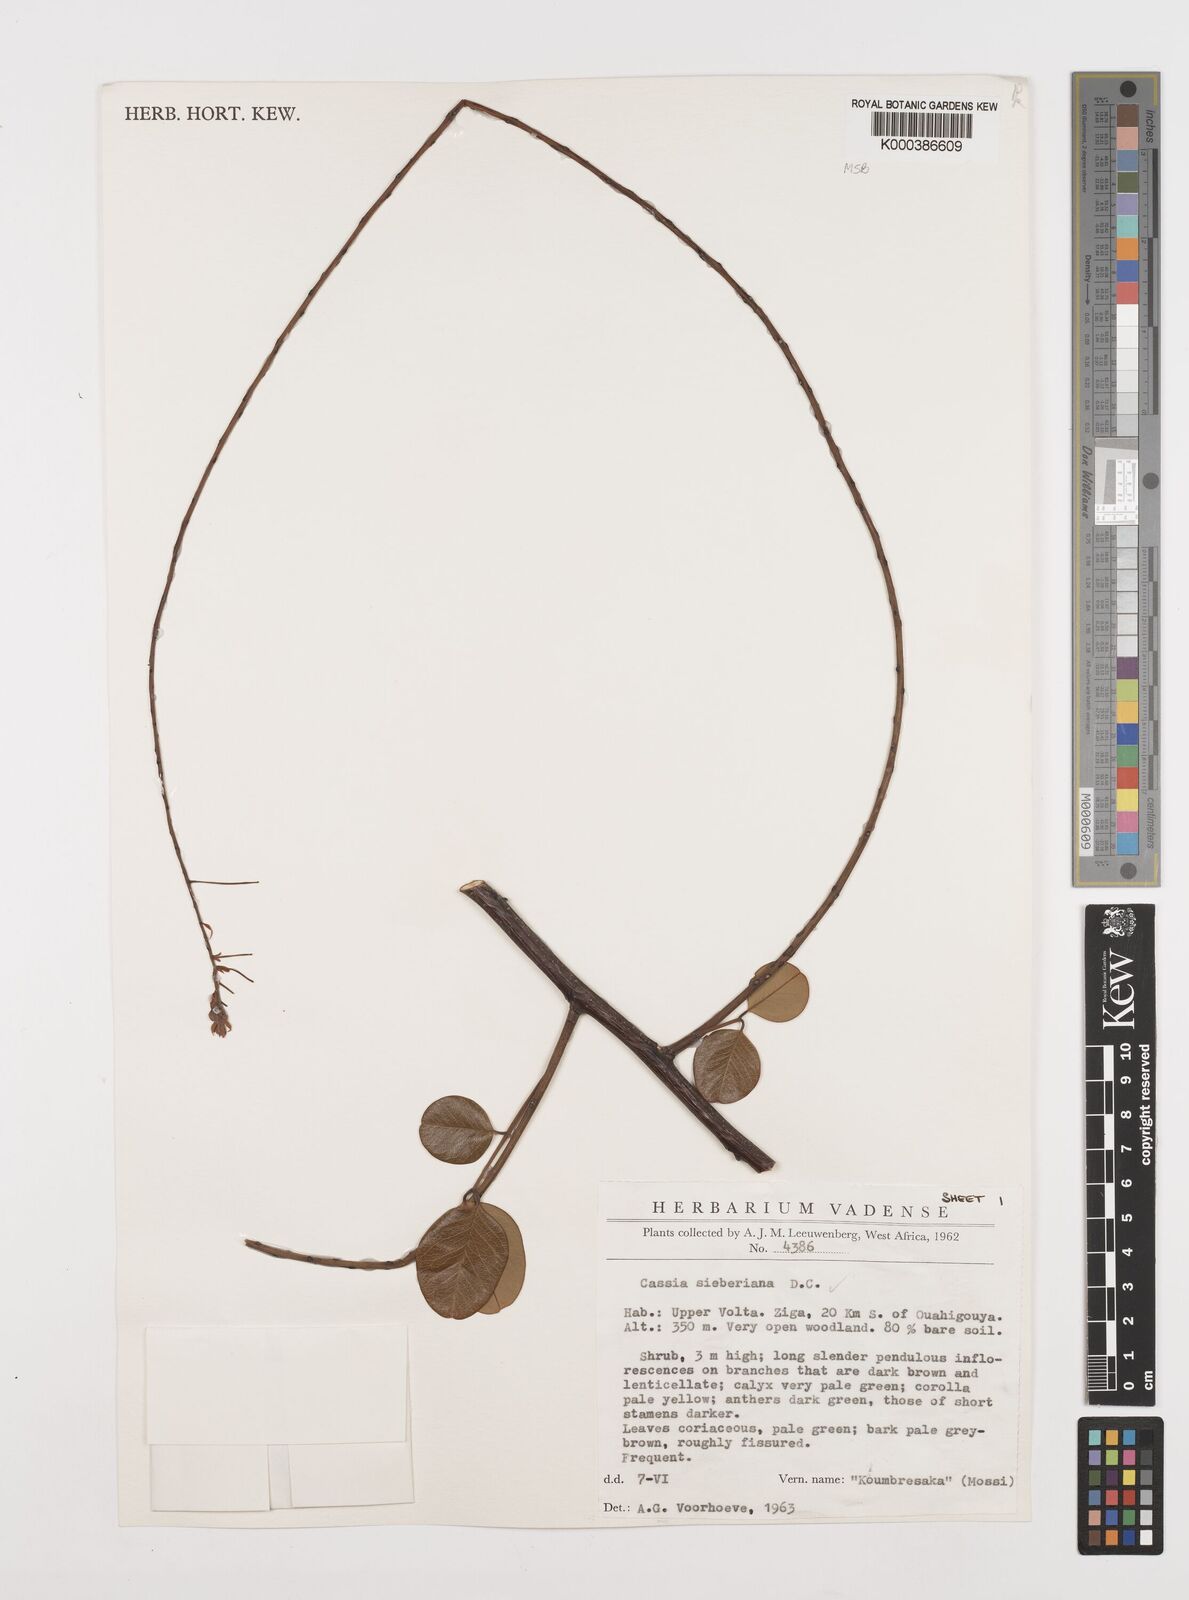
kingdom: Plantae
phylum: Tracheophyta
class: Magnoliopsida
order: Fabales
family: Fabaceae
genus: Cassia
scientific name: Cassia sieberiana
